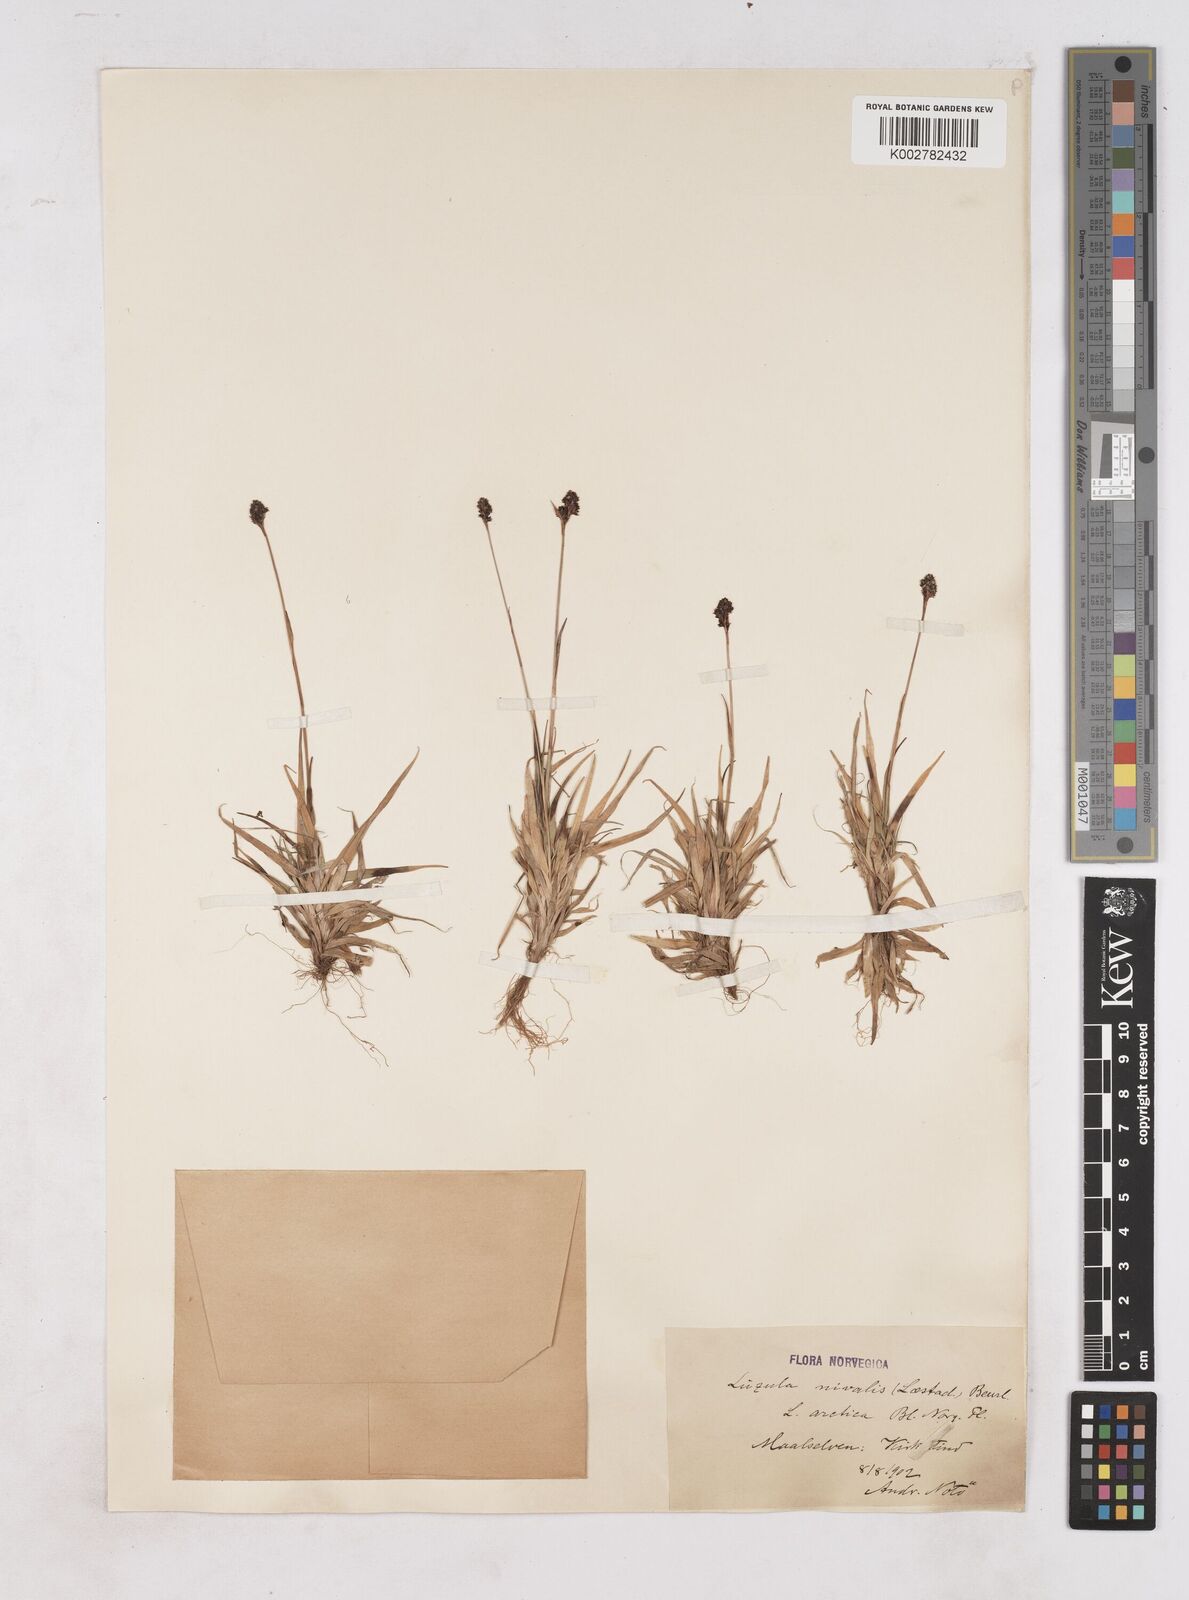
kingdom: Plantae
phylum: Tracheophyta
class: Liliopsida
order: Poales
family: Juncaceae
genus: Luzula
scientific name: Luzula nivalis
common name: Arctic woodrush
